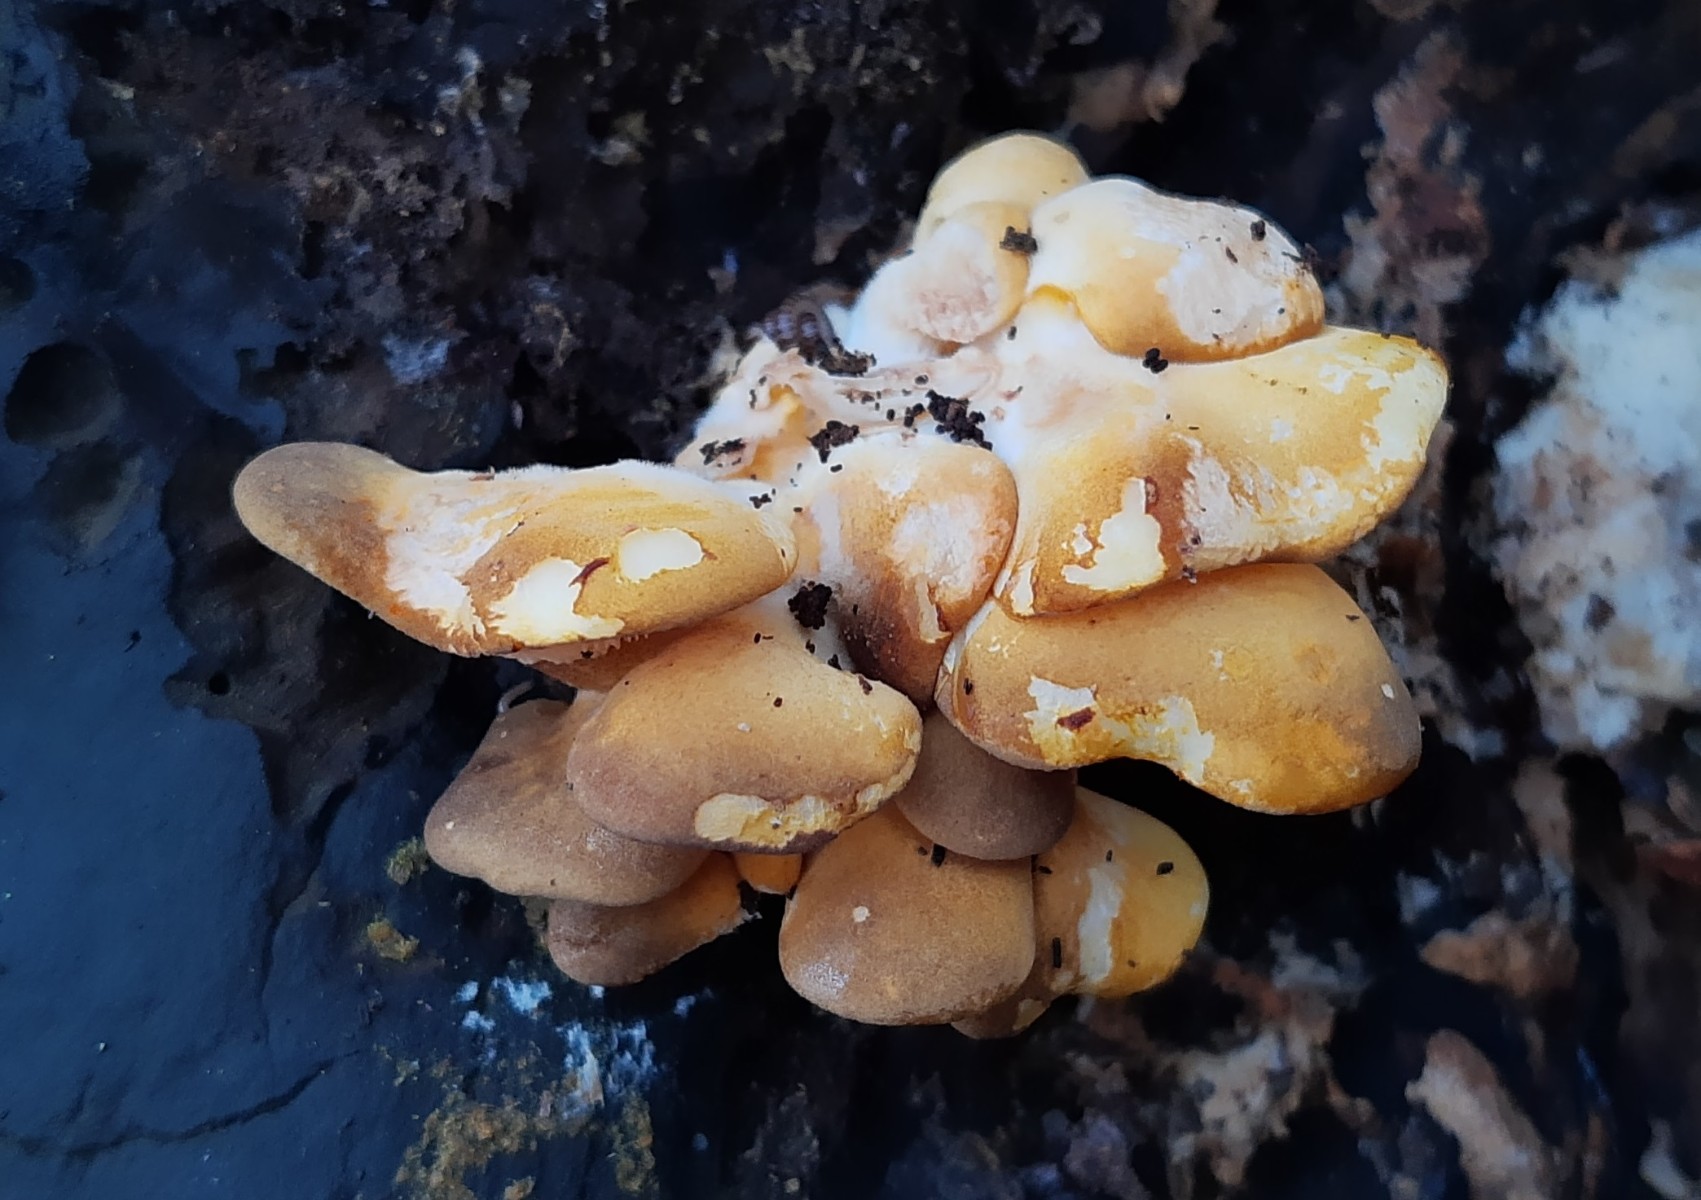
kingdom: Fungi
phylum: Basidiomycota
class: Agaricomycetes
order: Agaricales
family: Sarcomyxaceae
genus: Sarcomyxa
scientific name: Sarcomyxa serotina
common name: gummihat
